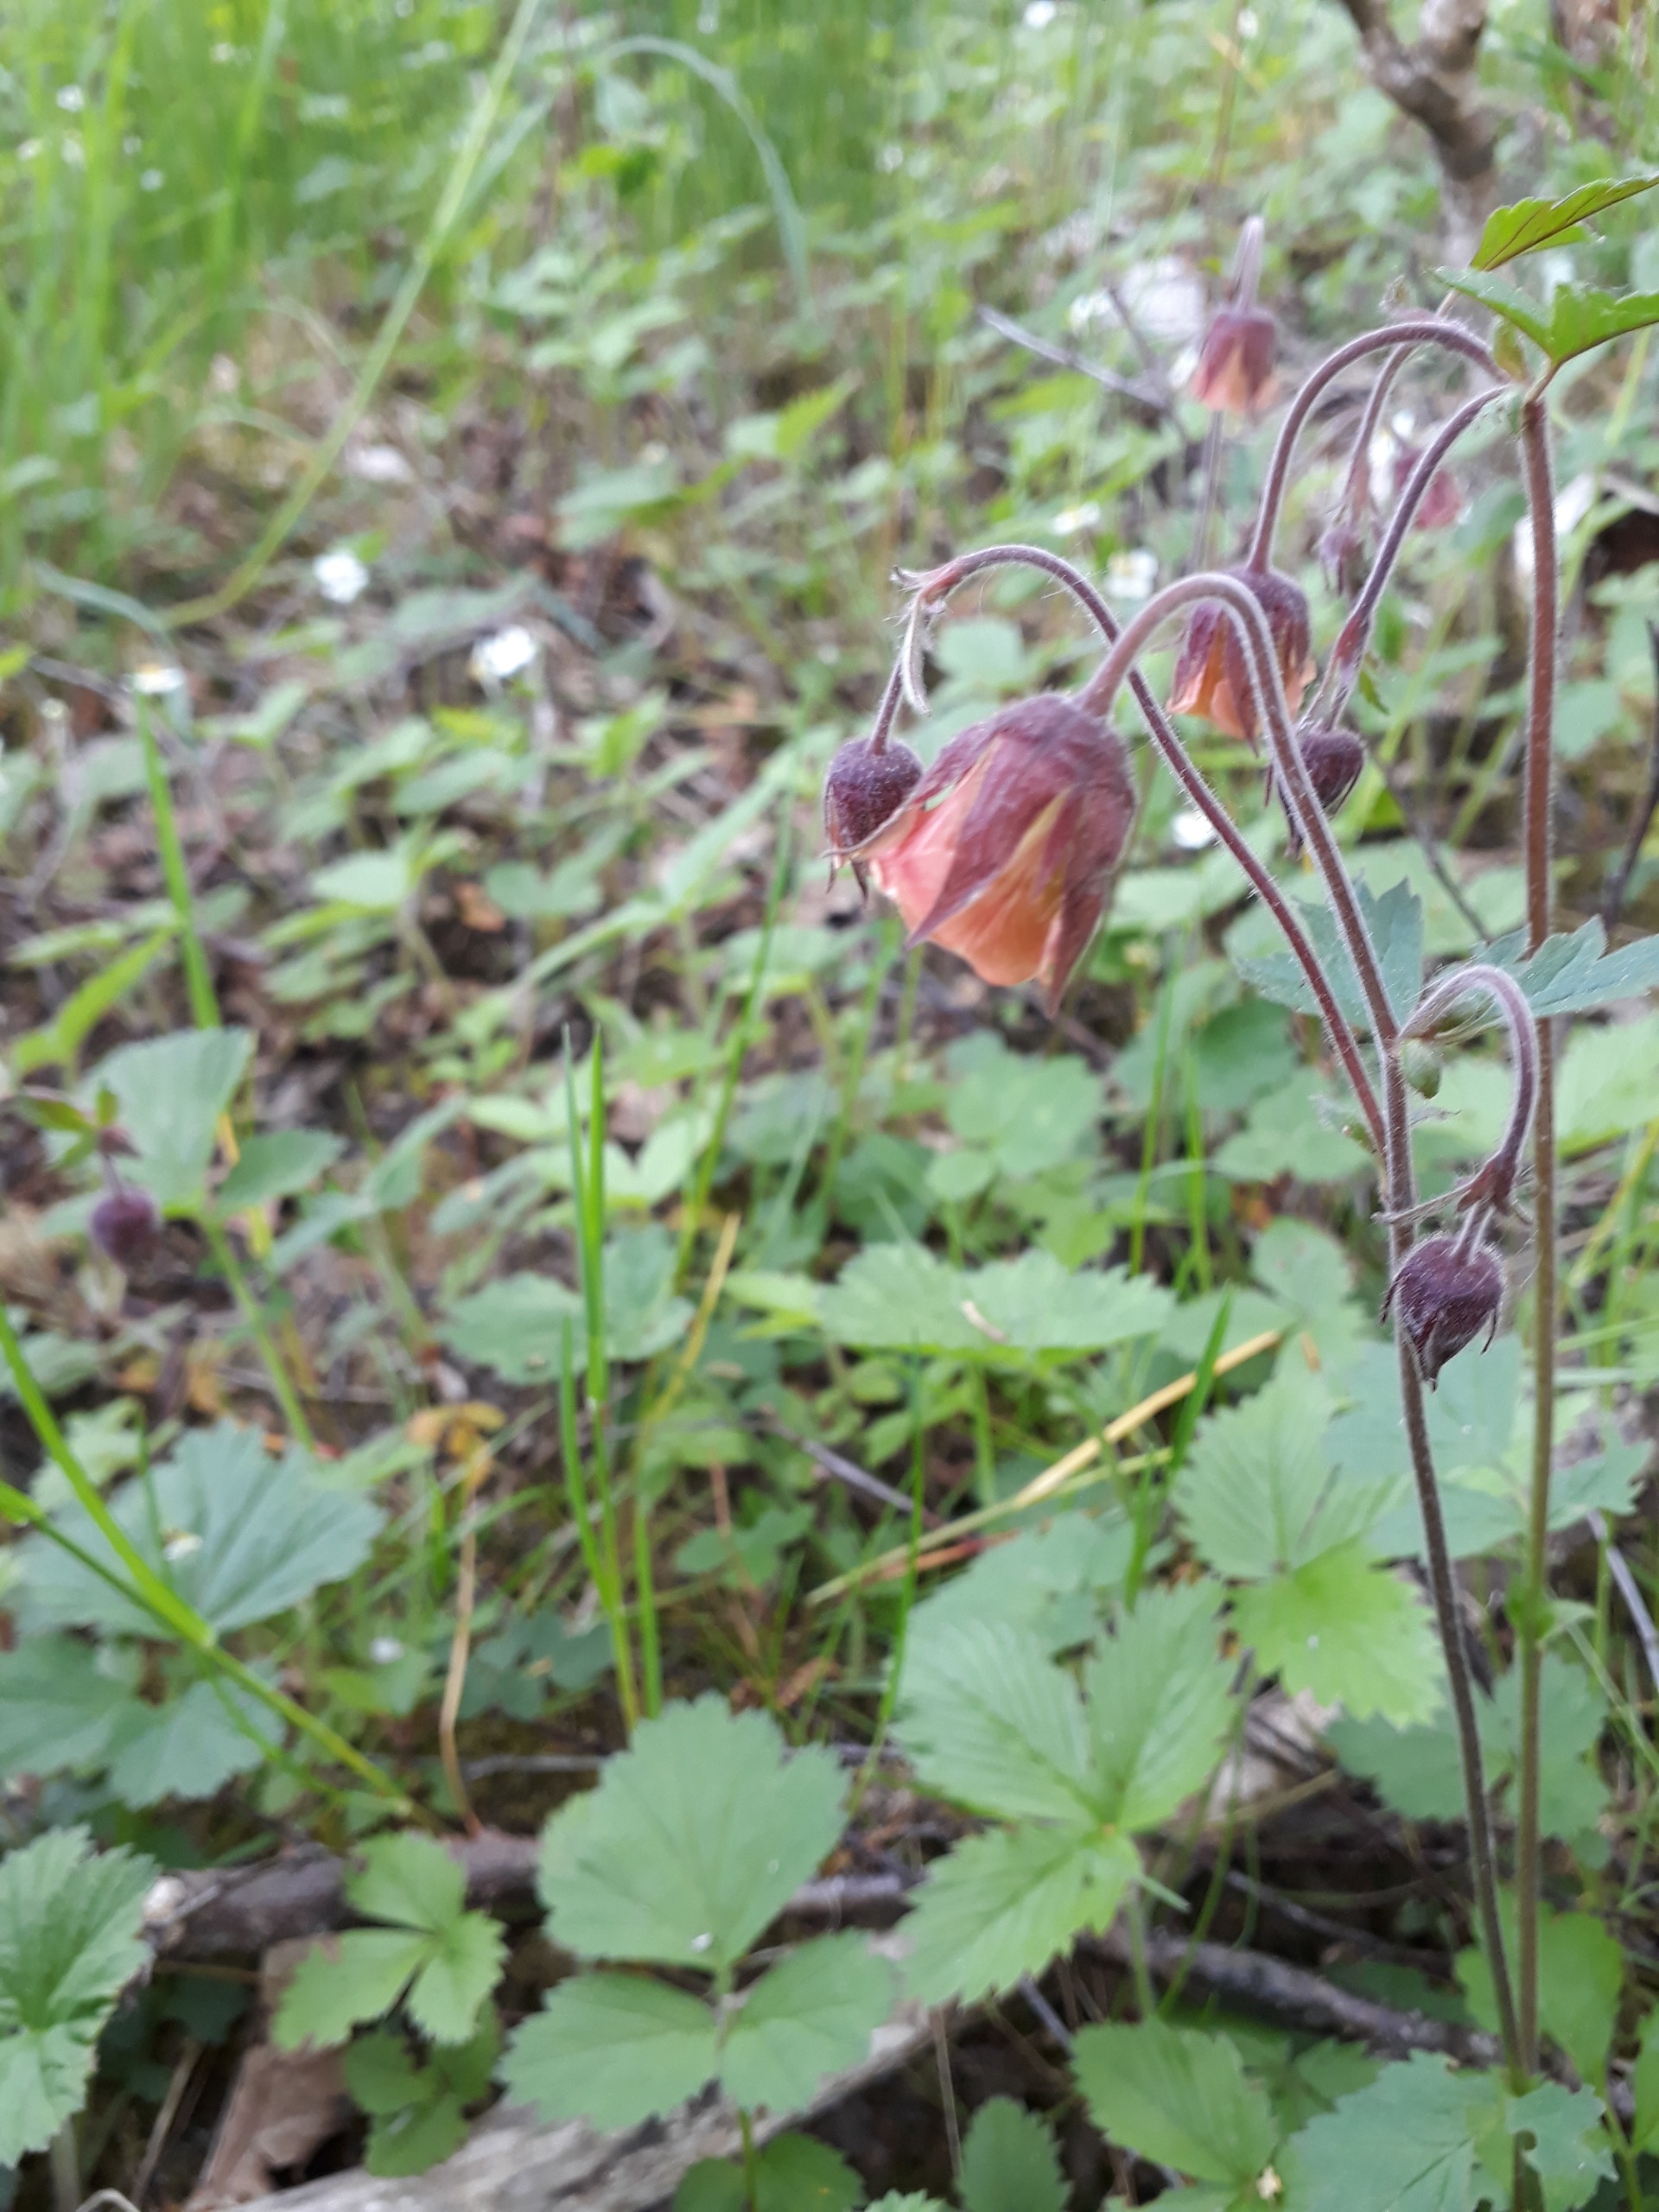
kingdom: Plantae
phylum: Tracheophyta
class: Magnoliopsida
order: Rosales
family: Rosaceae
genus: Geum
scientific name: Geum rivale
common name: Eng-nellikerod
